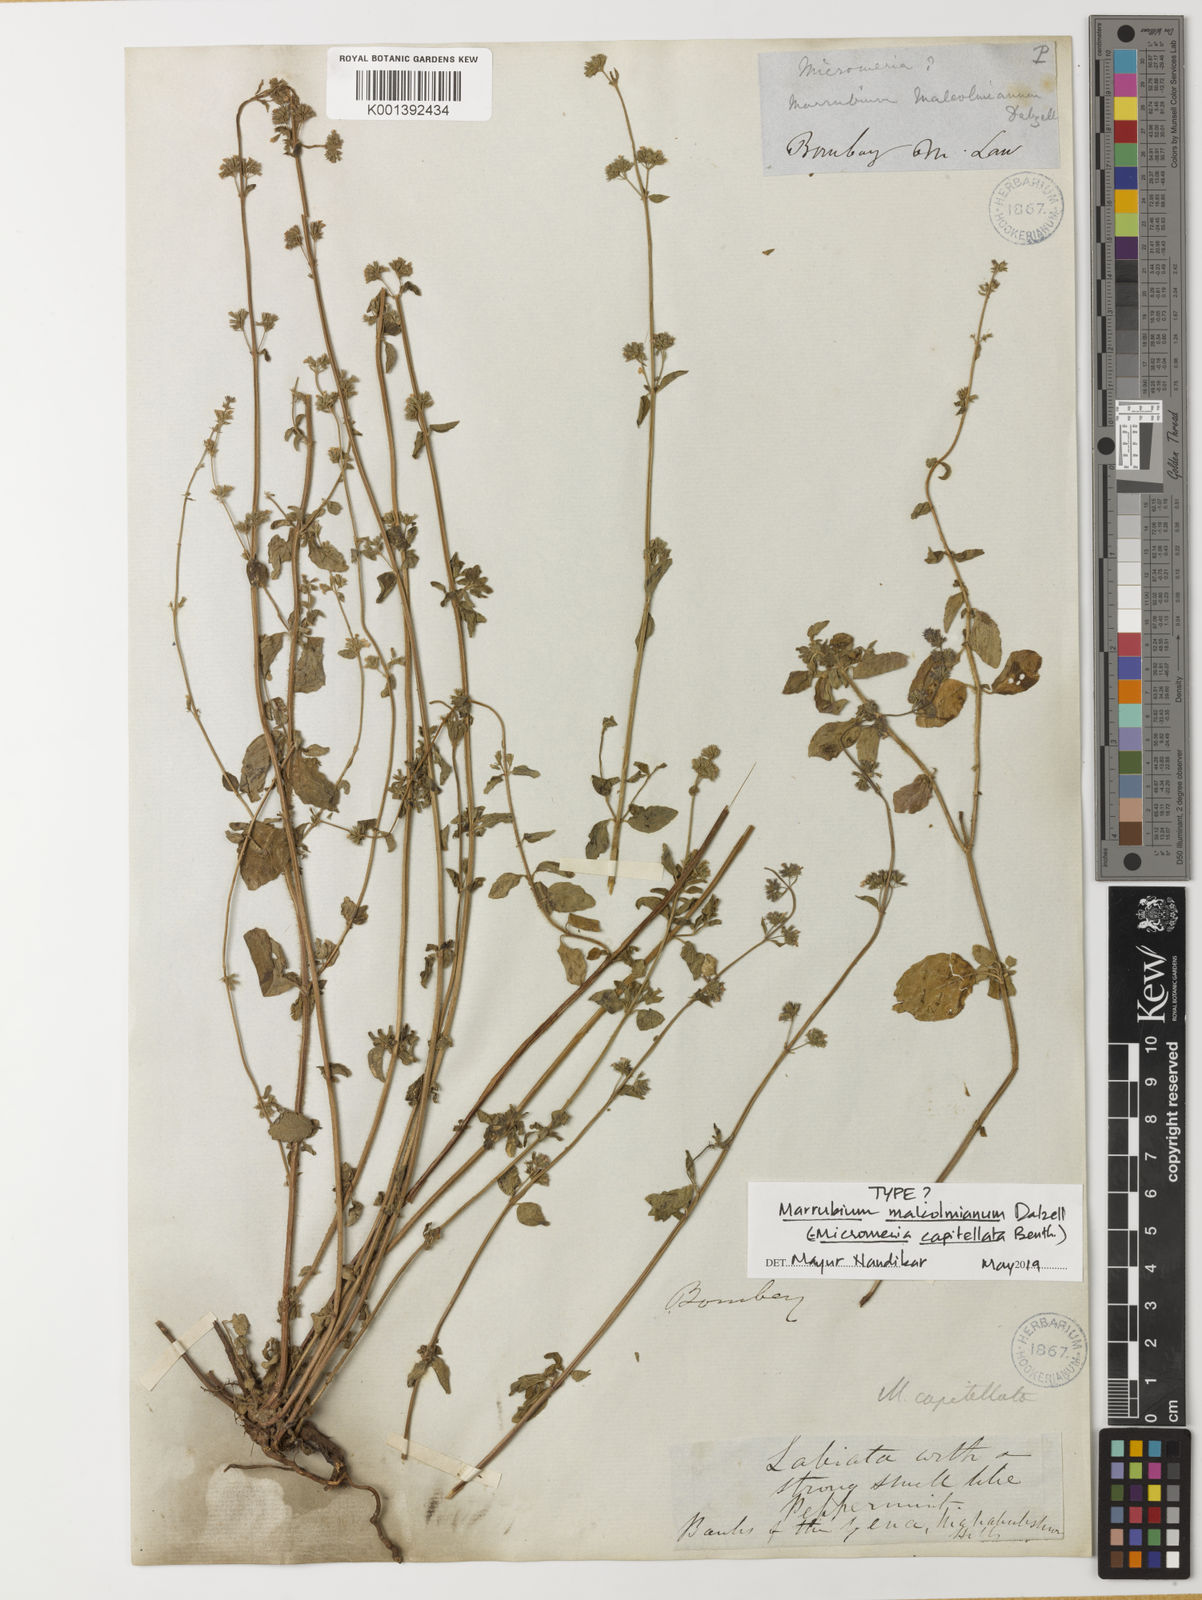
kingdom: Plantae
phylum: Tracheophyta
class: Magnoliopsida
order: Lamiales
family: Lamiaceae
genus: Clinopodium
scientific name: Clinopodium capitellatum
